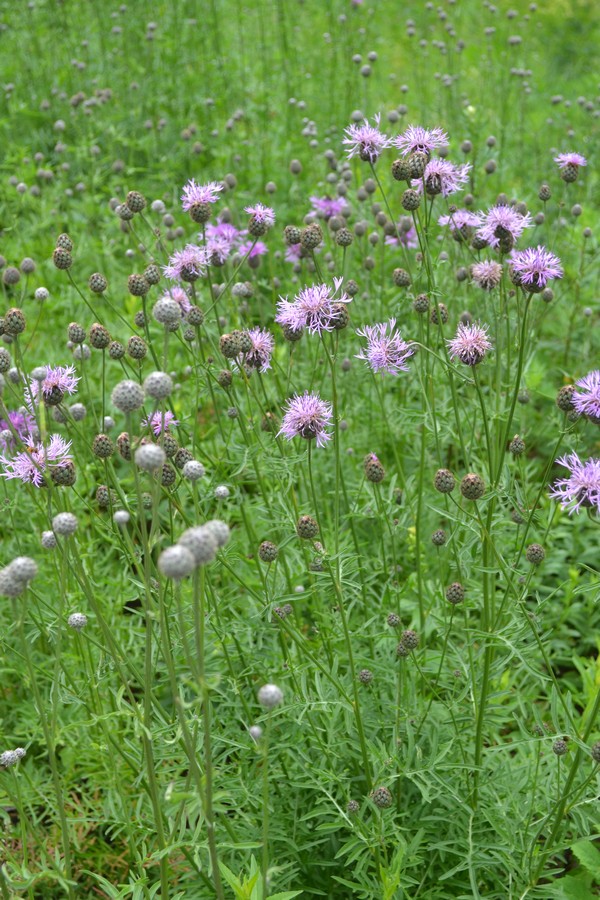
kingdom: Plantae
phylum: Tracheophyta
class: Magnoliopsida
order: Asterales
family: Asteraceae
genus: Centaurea
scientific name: Centaurea jacea
